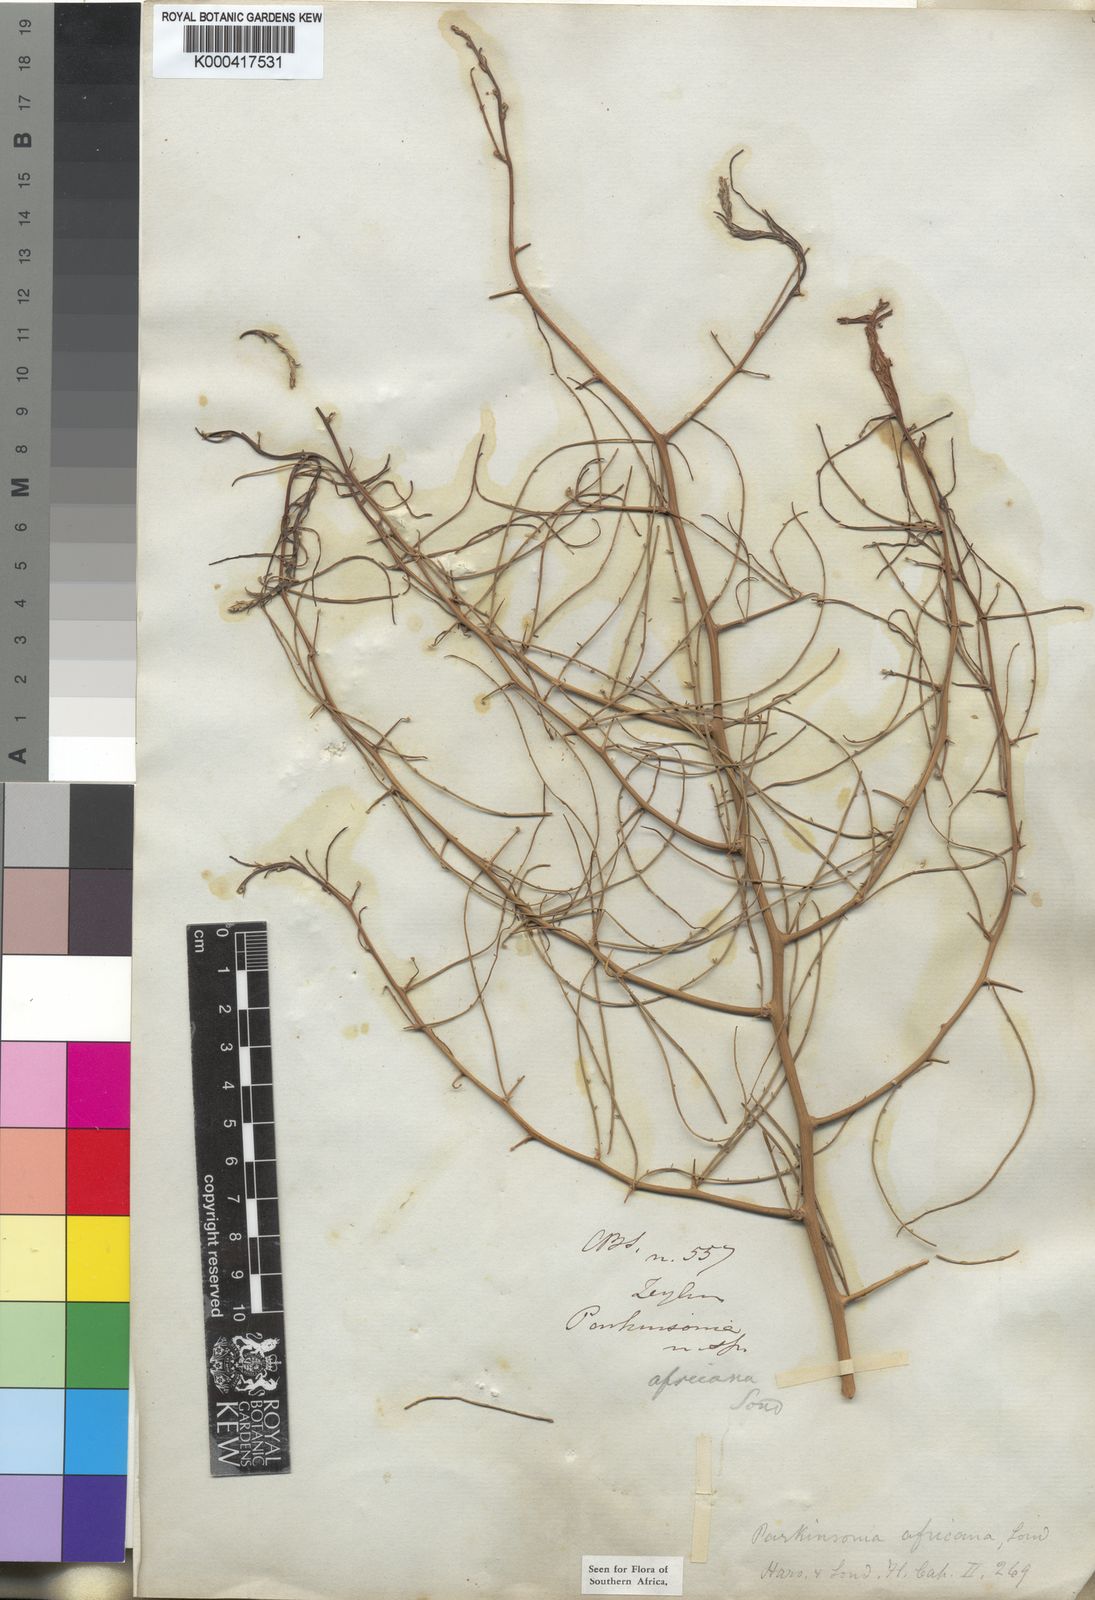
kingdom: Plantae
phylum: Tracheophyta
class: Magnoliopsida
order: Fabales
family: Fabaceae
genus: Parkinsonia
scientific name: Parkinsonia africana
